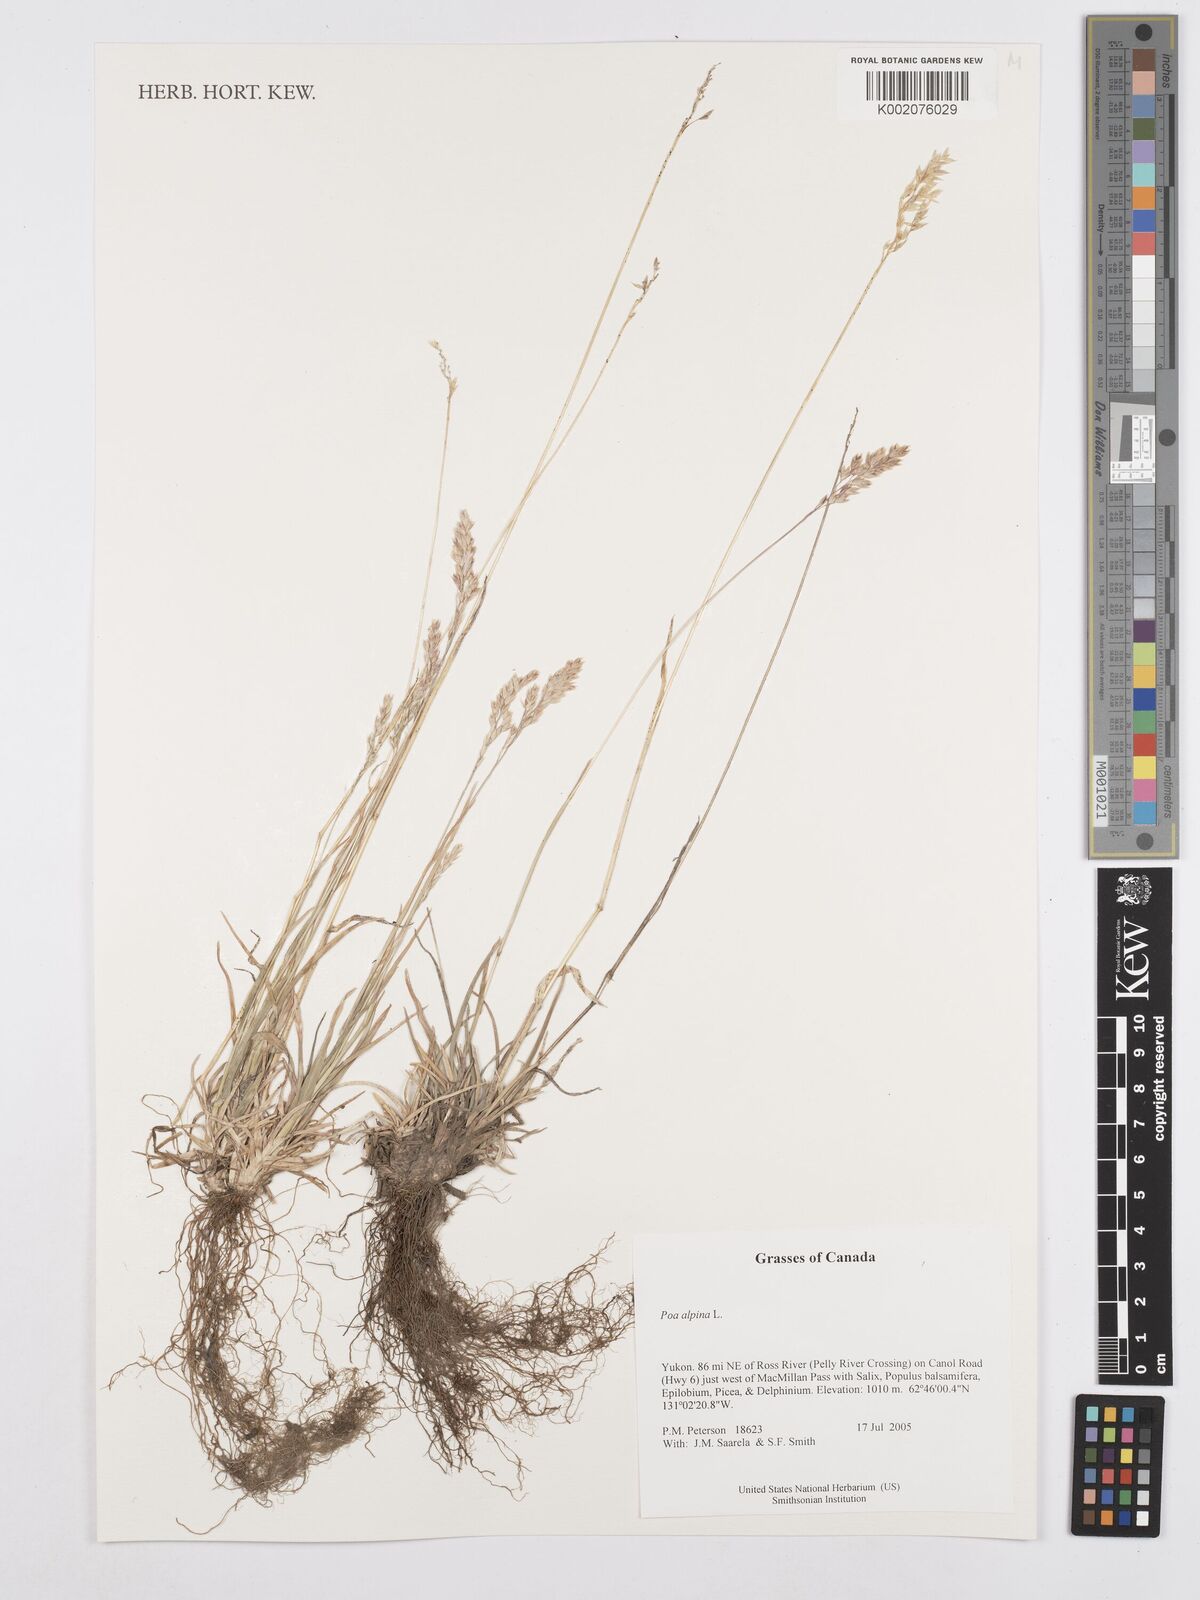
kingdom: Plantae
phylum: Tracheophyta
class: Liliopsida
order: Poales
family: Poaceae
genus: Poa
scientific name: Poa alpina
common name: Alpine bluegrass
